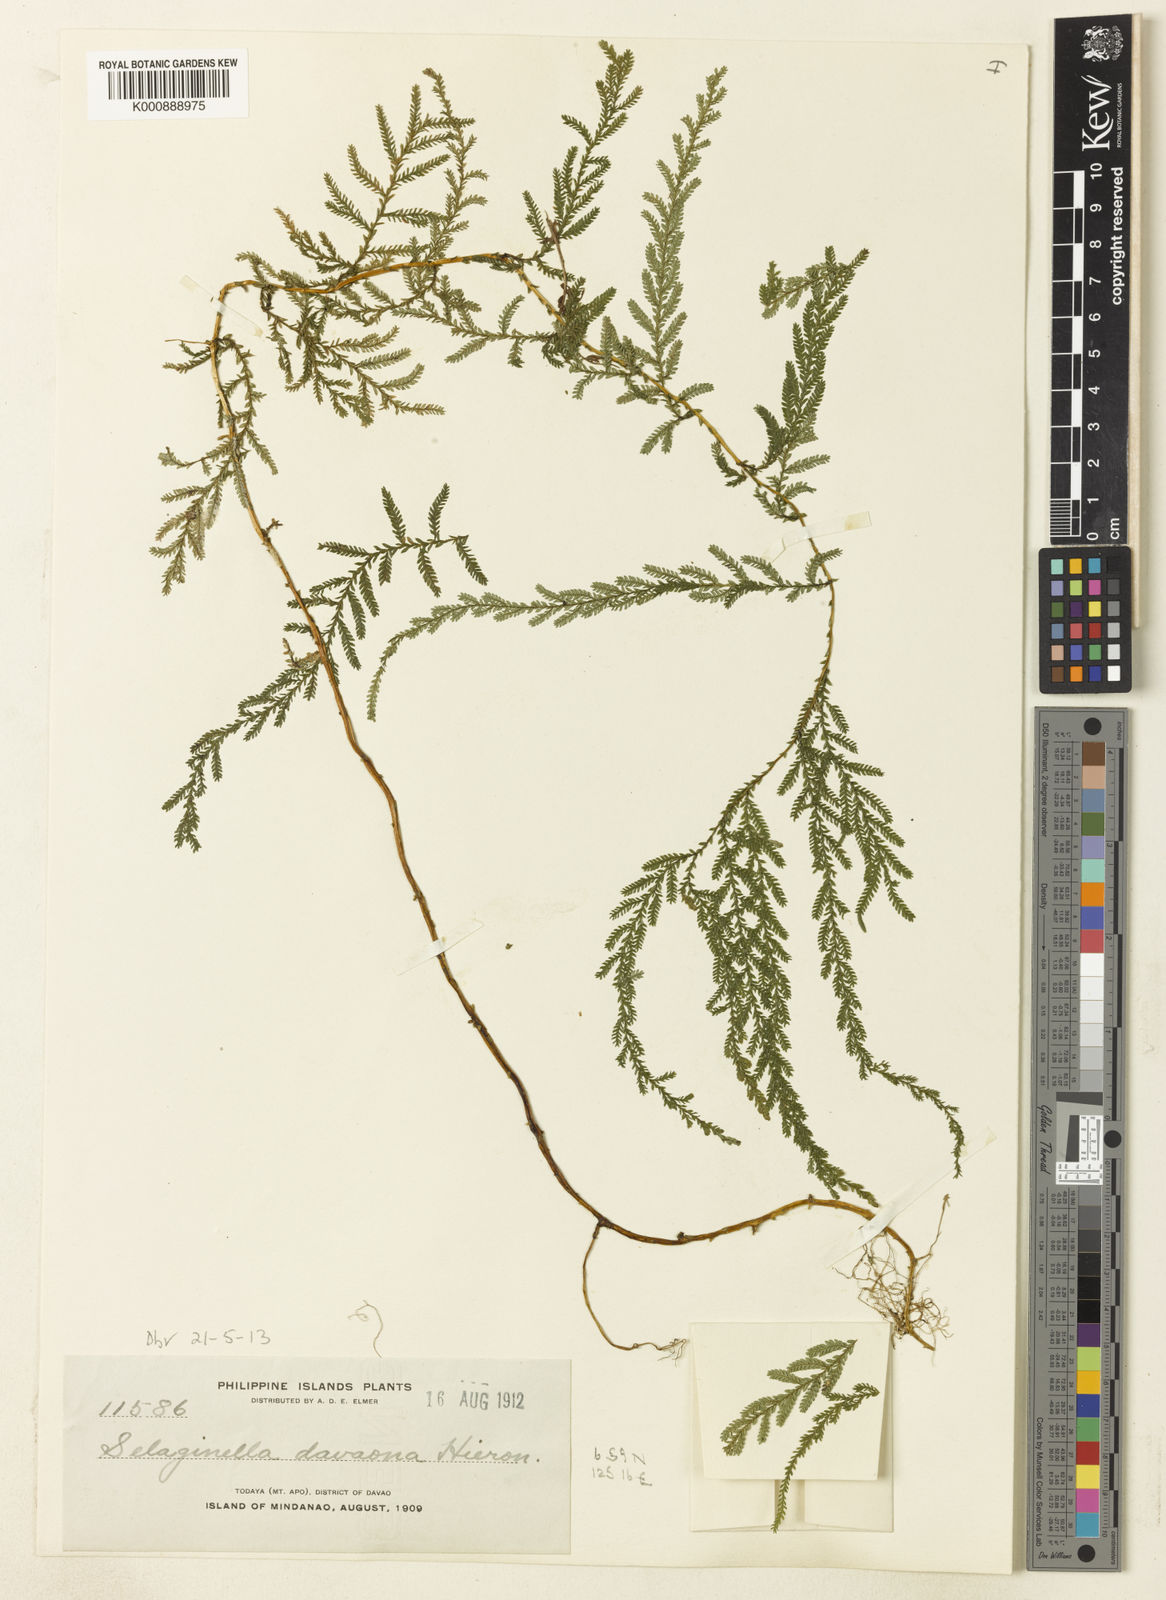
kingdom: Plantae
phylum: Tracheophyta
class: Lycopodiopsida
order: Selaginellales
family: Selaginellaceae
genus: Selaginella
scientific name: Selaginella
